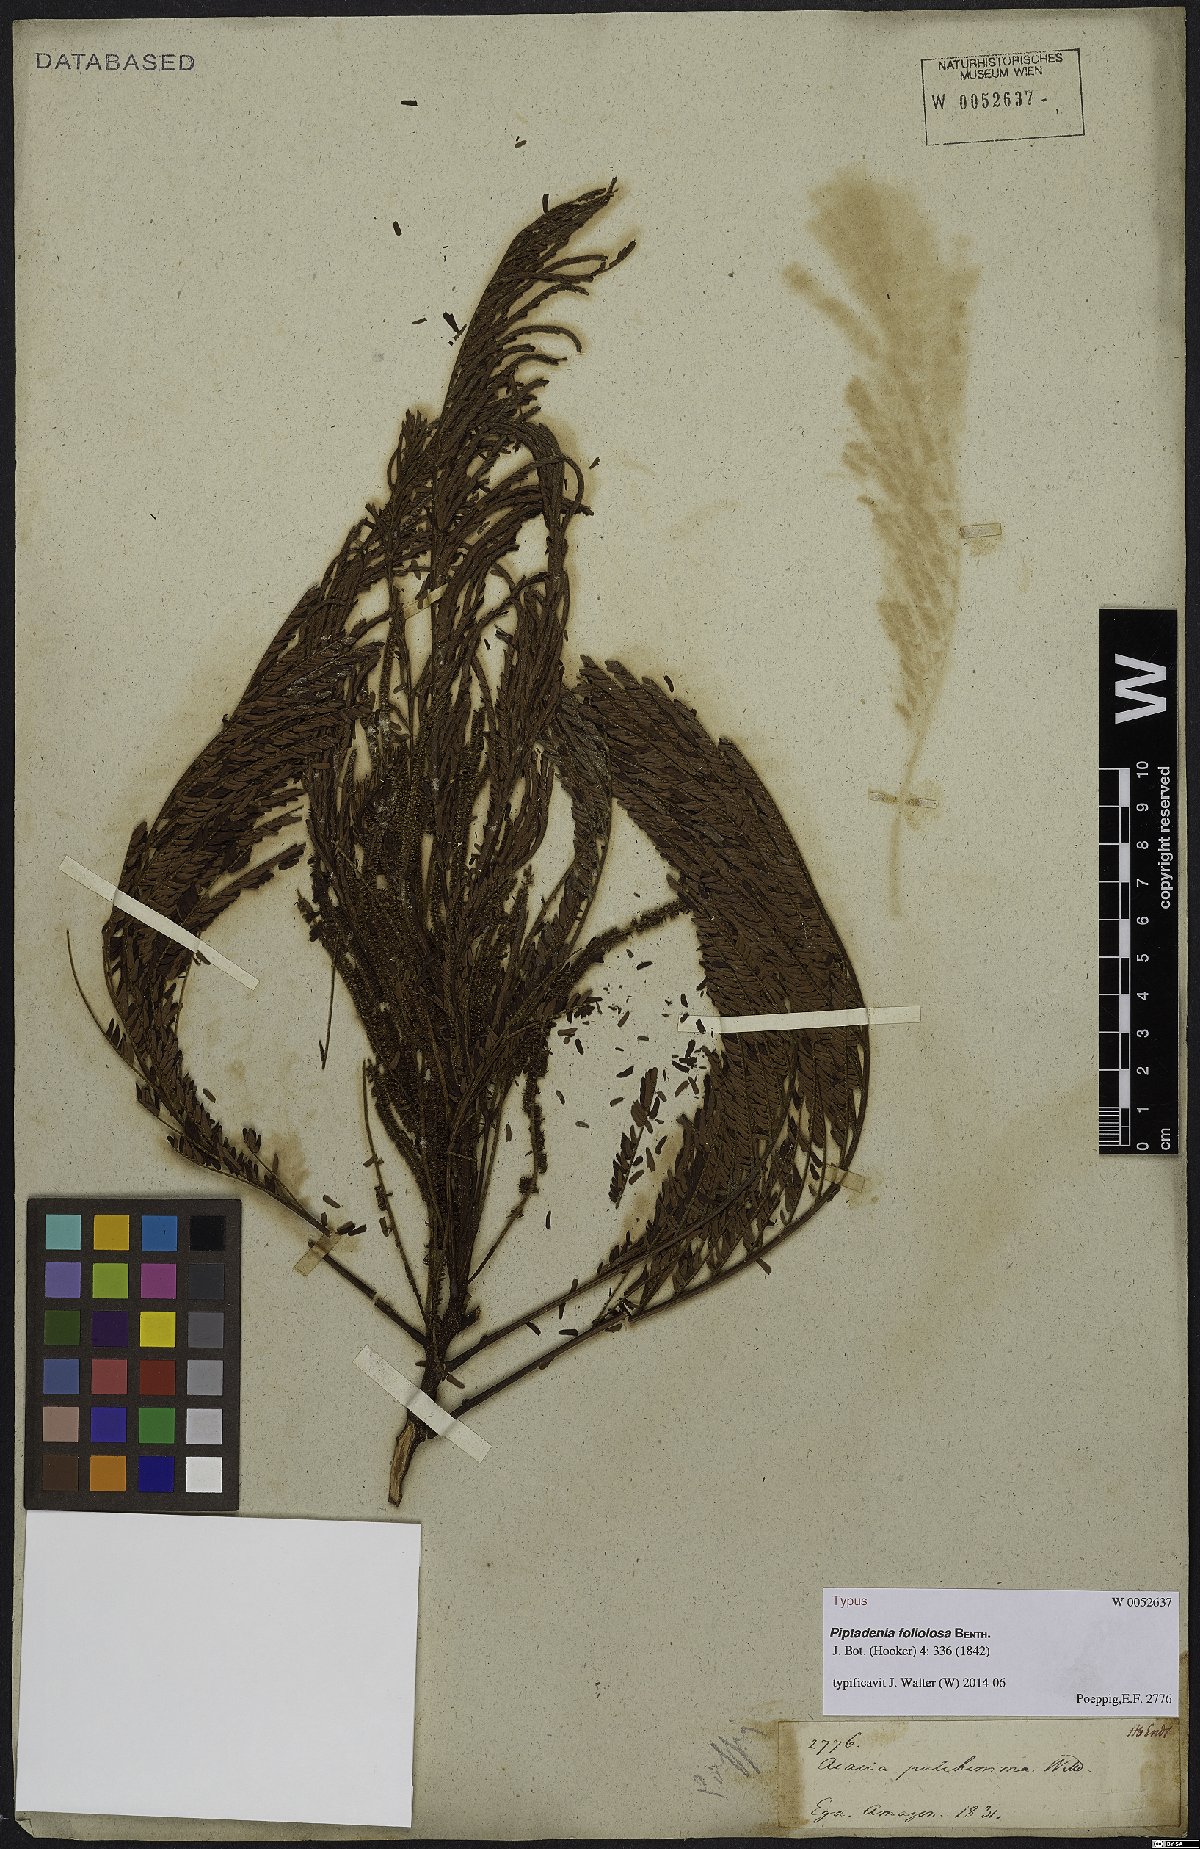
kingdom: Plantae
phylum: Tracheophyta
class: Magnoliopsida
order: Fabales
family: Fabaceae
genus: Stryphnodendron
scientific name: Stryphnodendron pulcherrimum
